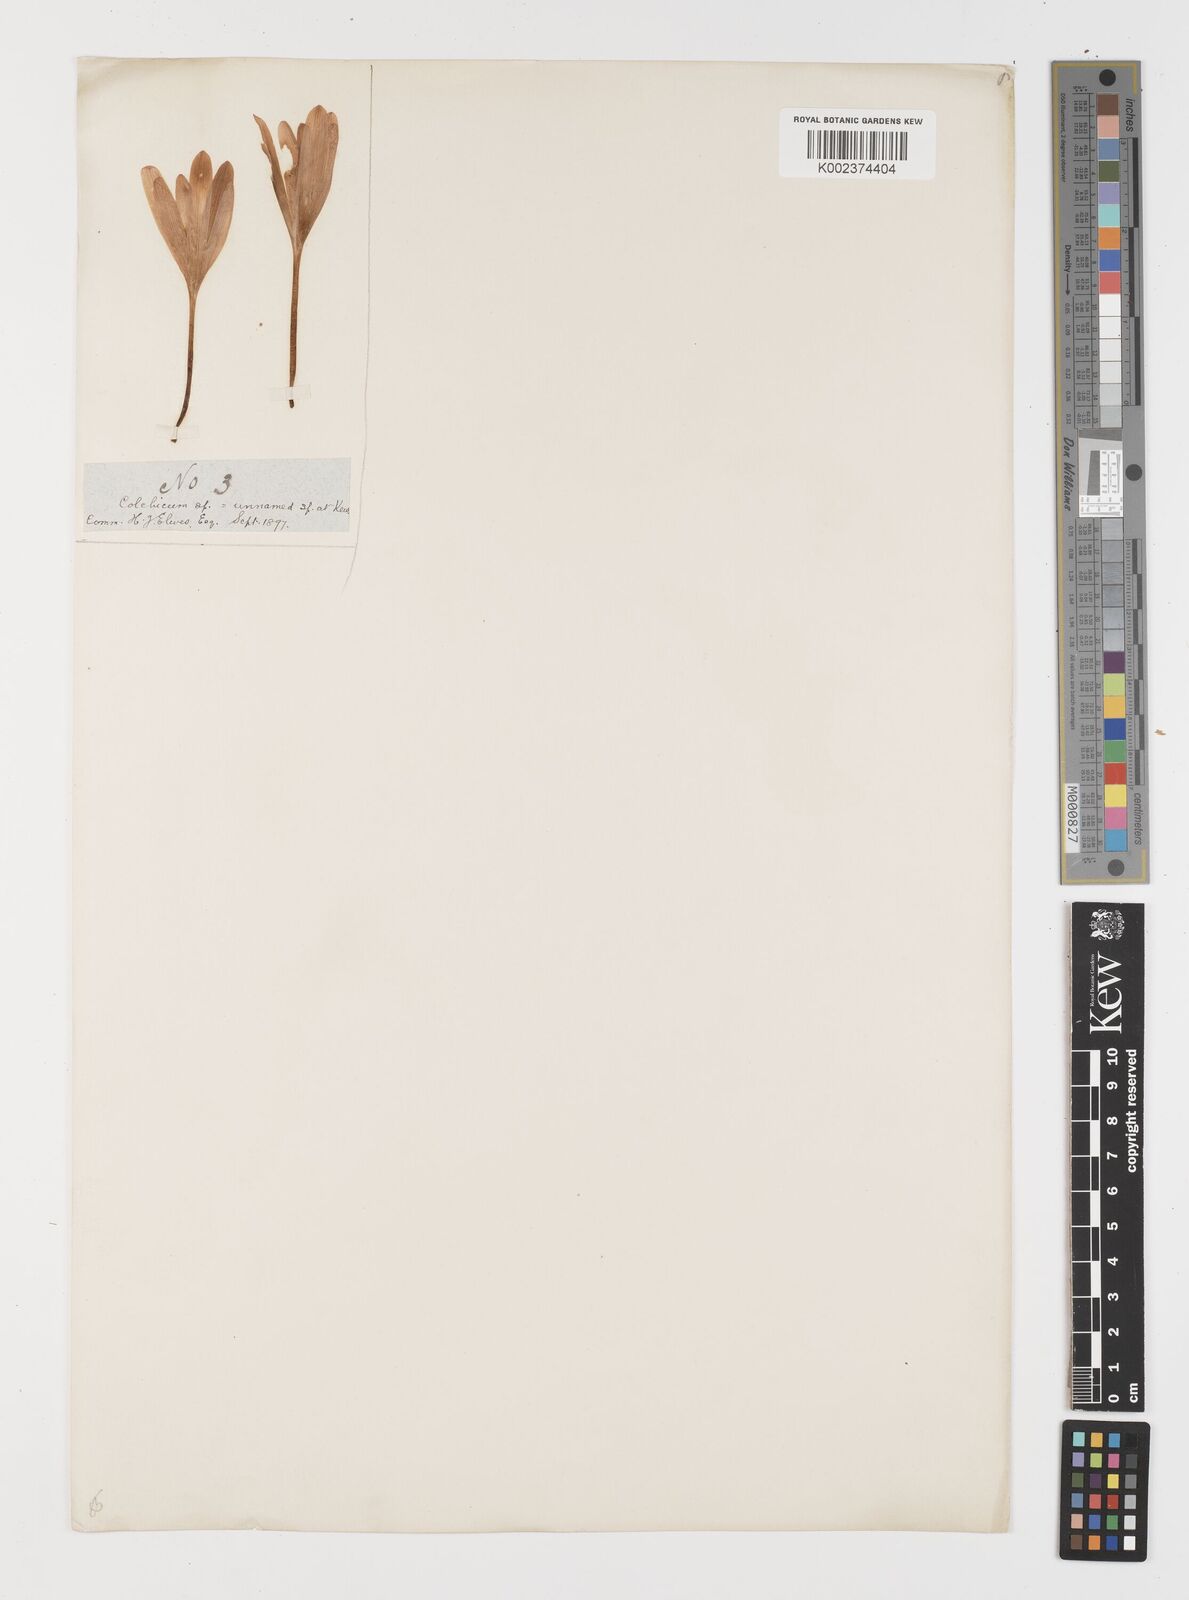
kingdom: Plantae
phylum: Tracheophyta
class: Liliopsida
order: Liliales
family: Colchicaceae
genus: Colchicum
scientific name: Colchicum
